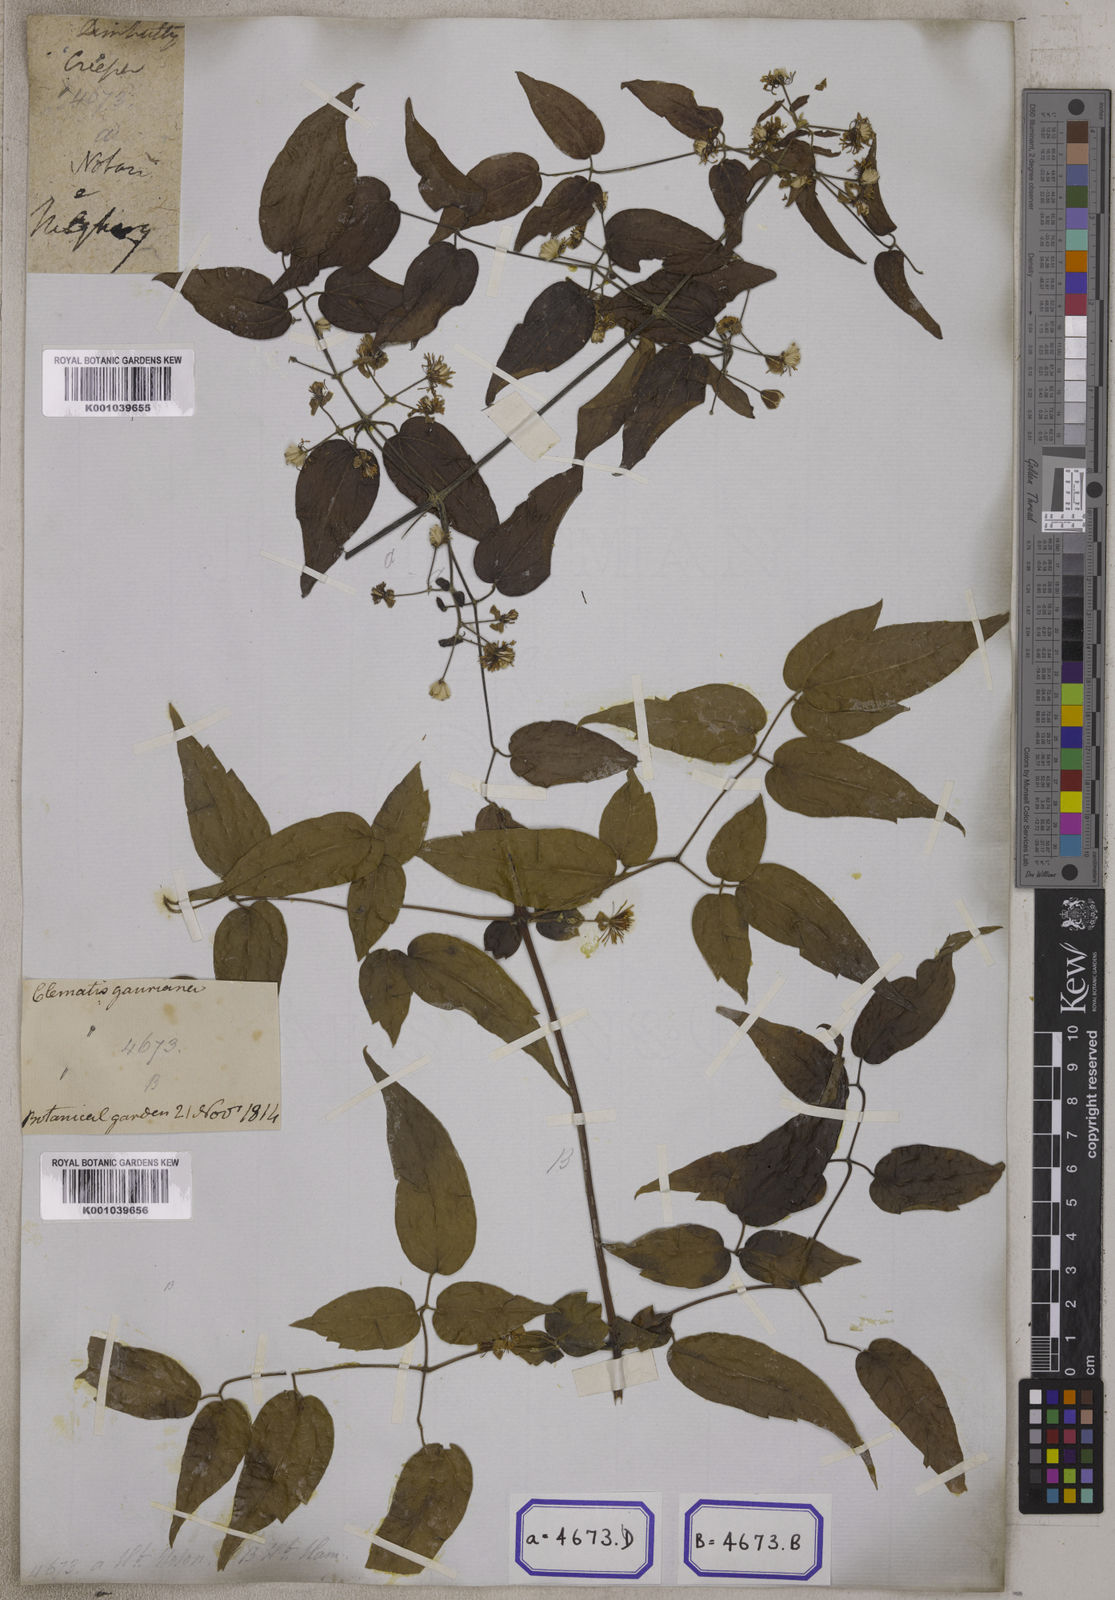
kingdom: Plantae
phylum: Tracheophyta
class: Magnoliopsida
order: Ranunculales
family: Ranunculaceae
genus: Clematis
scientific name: Clematis
